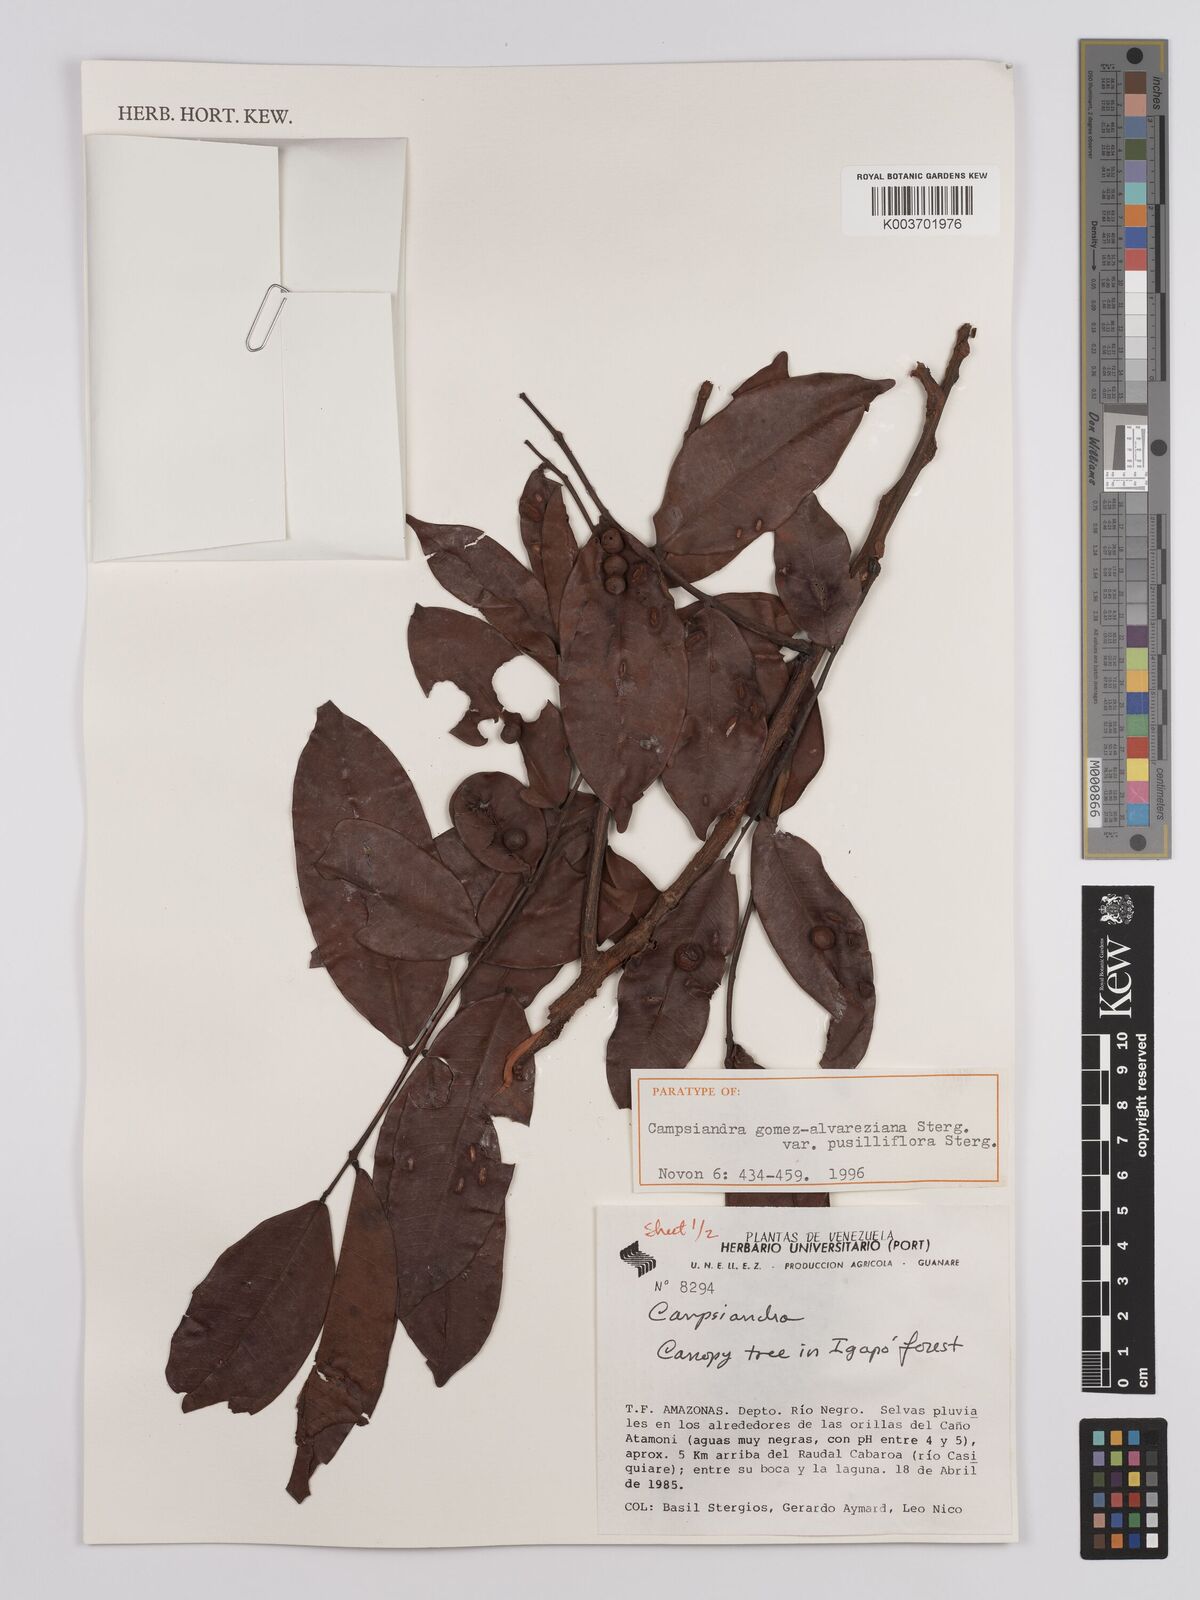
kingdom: Plantae
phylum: Tracheophyta
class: Magnoliopsida
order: Fabales
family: Fabaceae
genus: Campsiandra
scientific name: Campsiandra gomez-alvareziana
